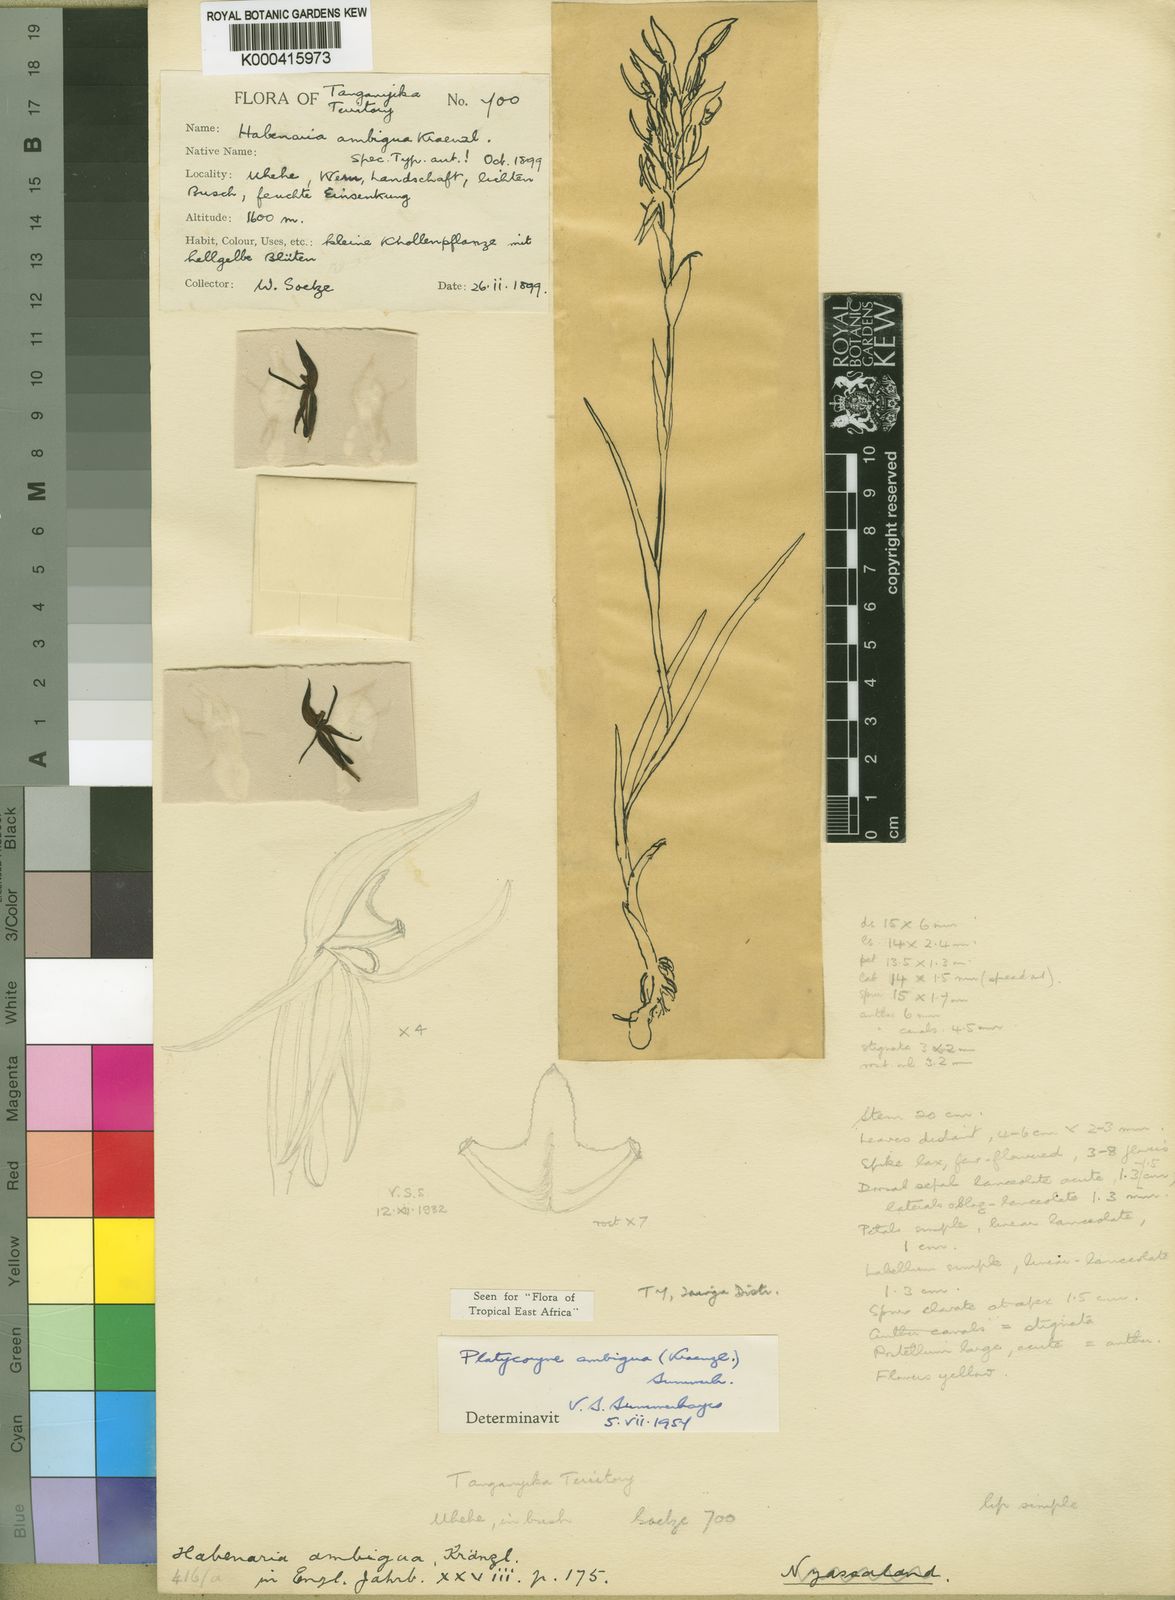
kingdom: Plantae
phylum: Tracheophyta
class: Liliopsida
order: Asparagales
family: Orchidaceae
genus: Platycoryne
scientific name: Platycoryne ambigua
